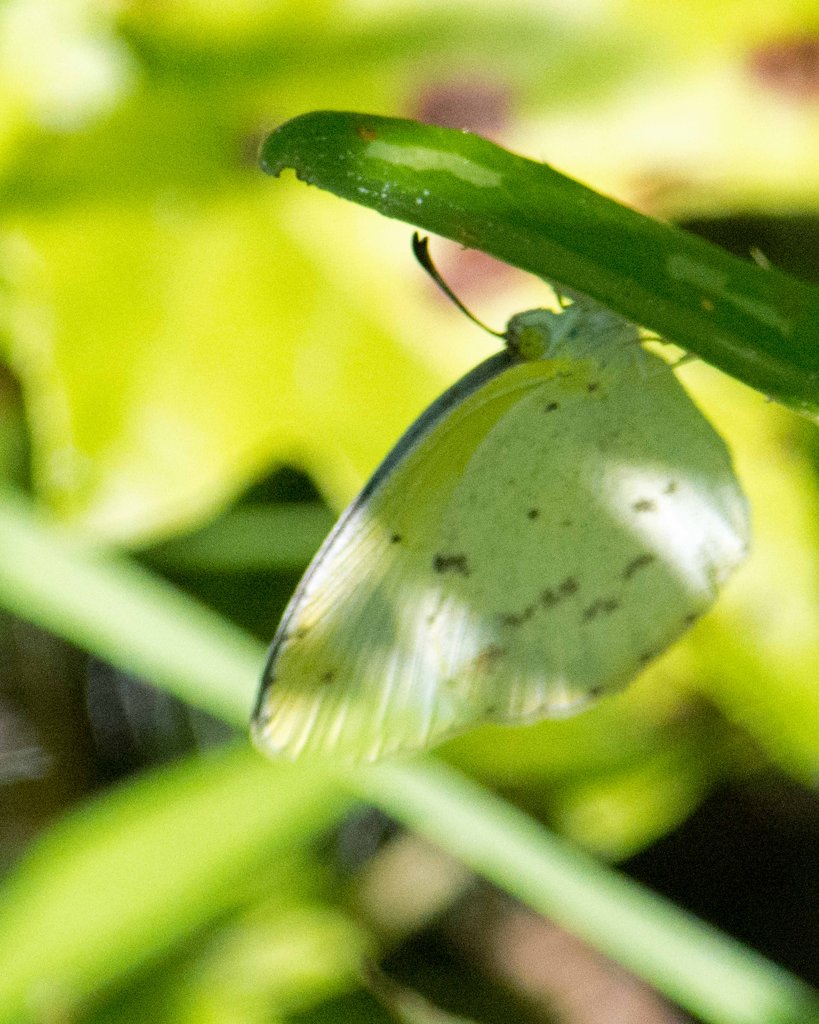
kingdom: Animalia
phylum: Arthropoda
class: Insecta
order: Lepidoptera
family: Pieridae
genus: Pyrisitia
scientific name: Pyrisitia lisa
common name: Little Yellow
